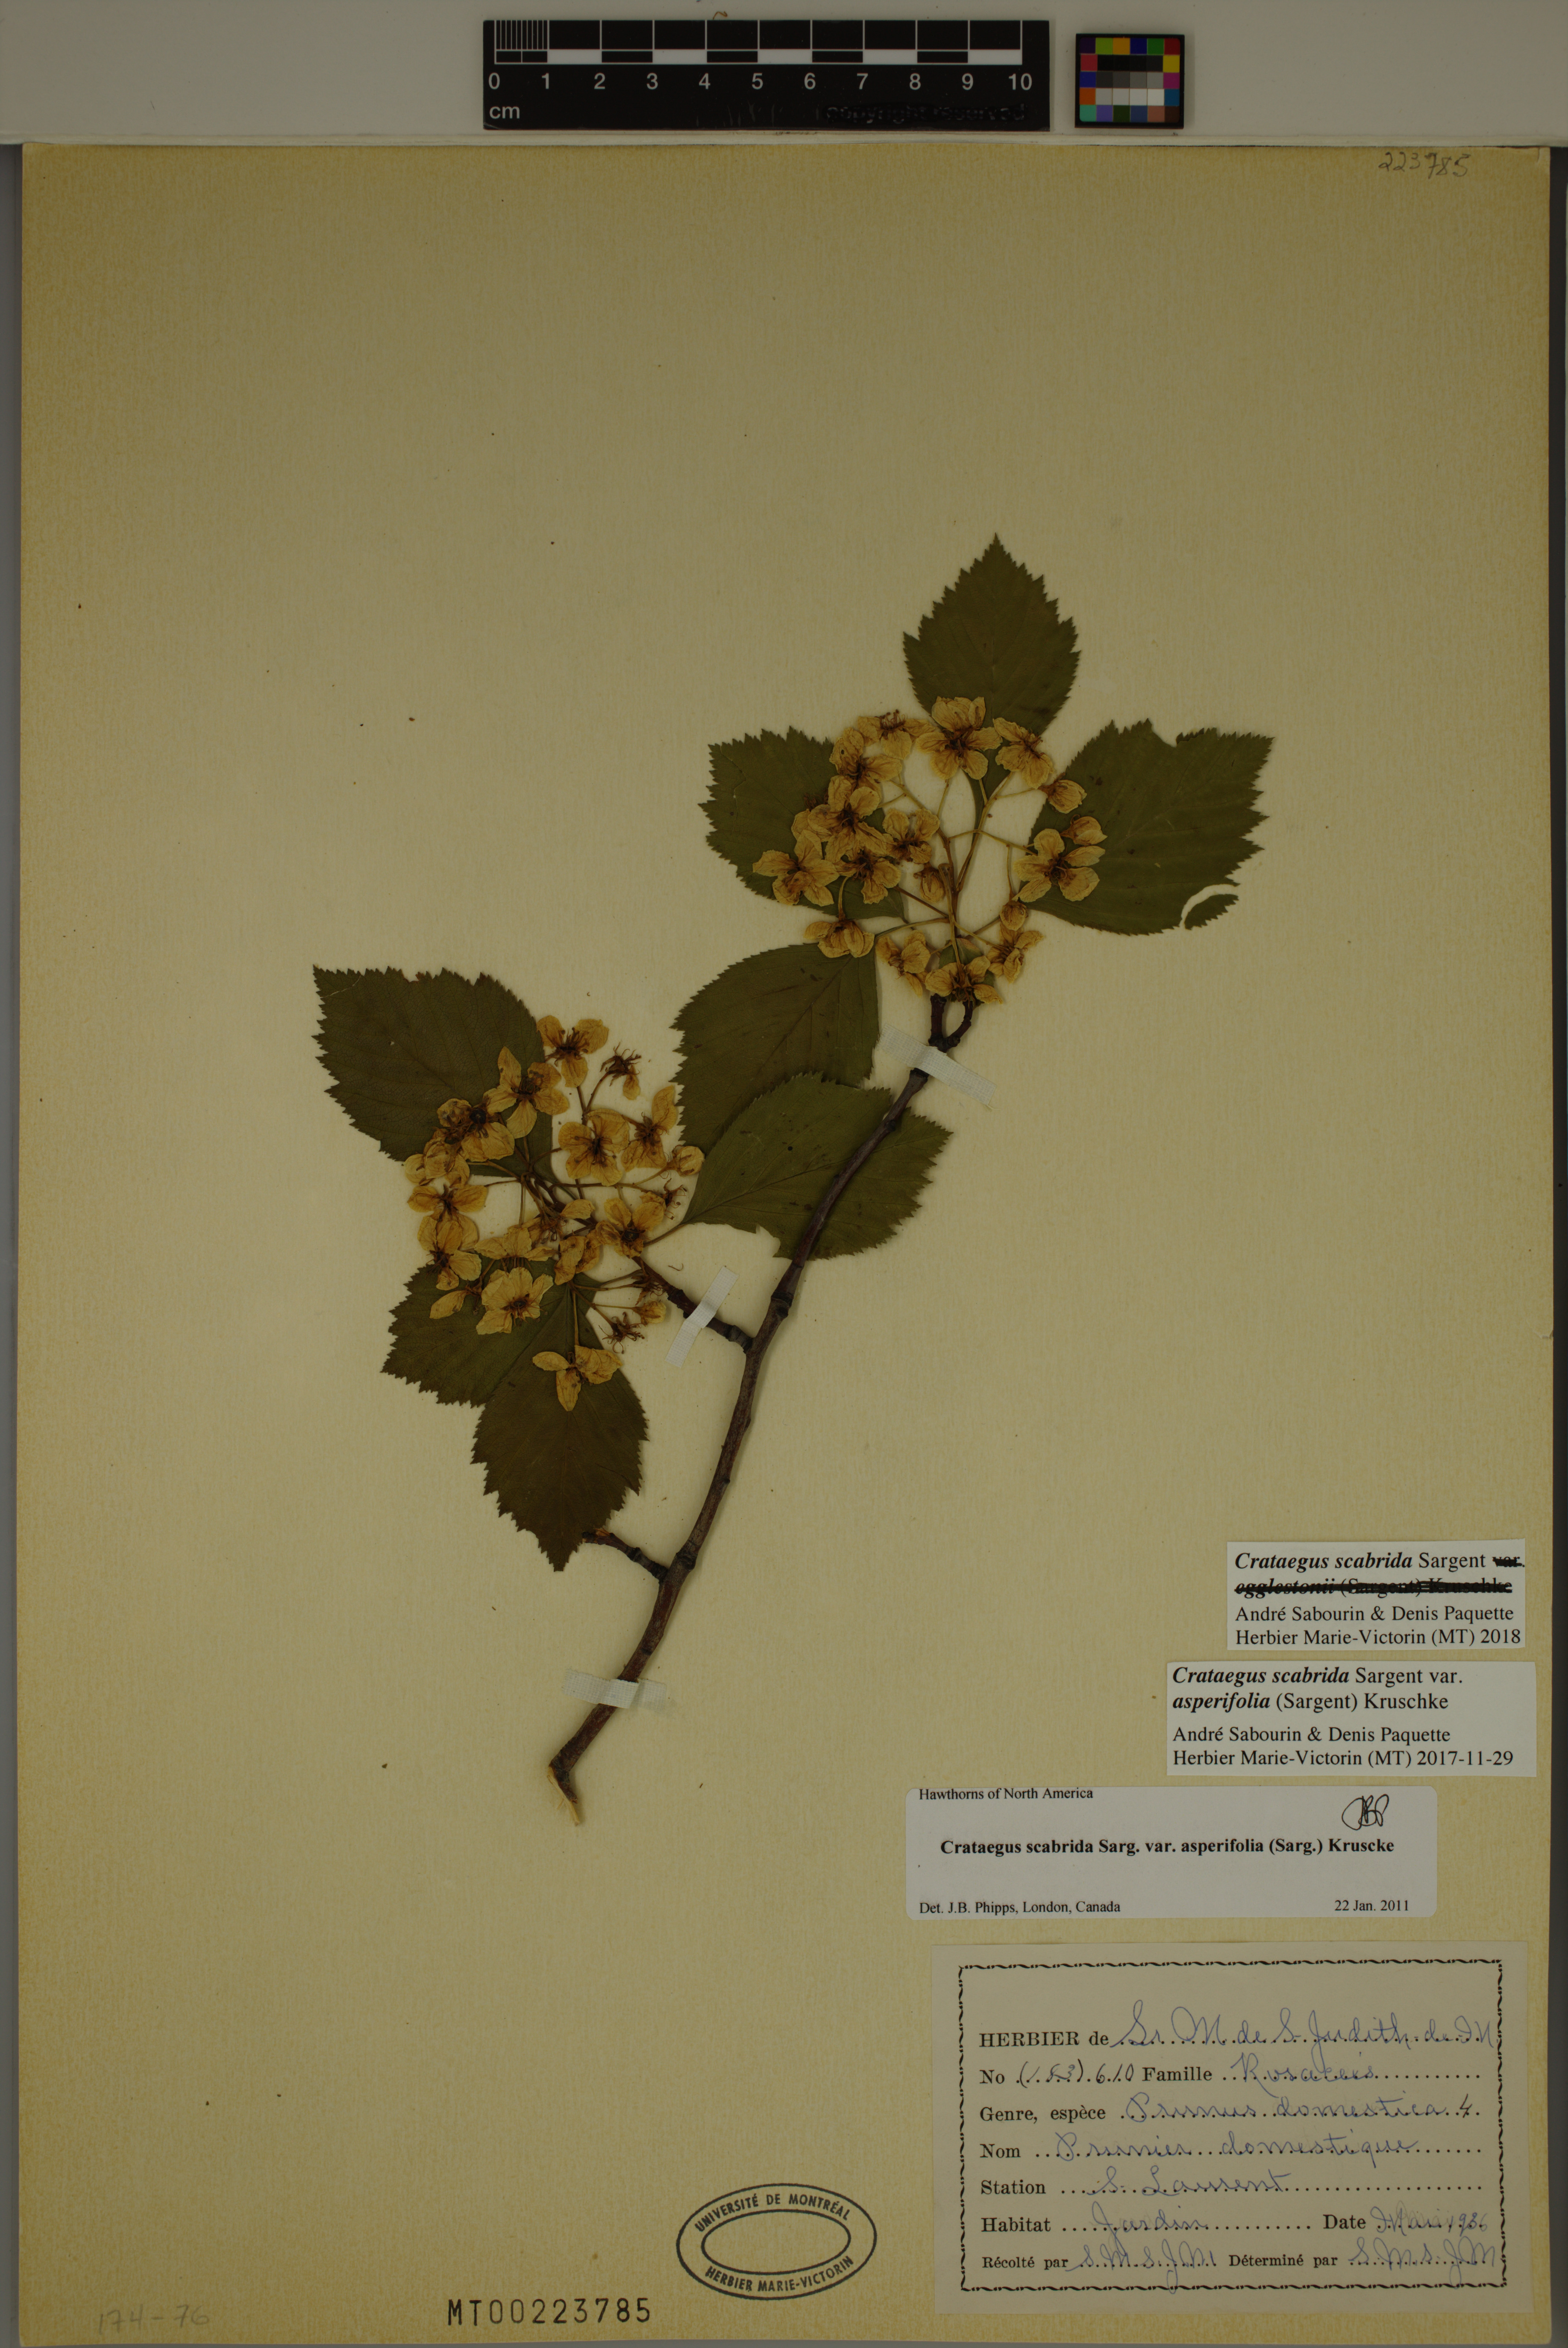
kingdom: Plantae
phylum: Tracheophyta
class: Magnoliopsida
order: Rosales
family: Rosaceae
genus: Crataegus
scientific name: Crataegus scabrida
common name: Rough hawthorn
